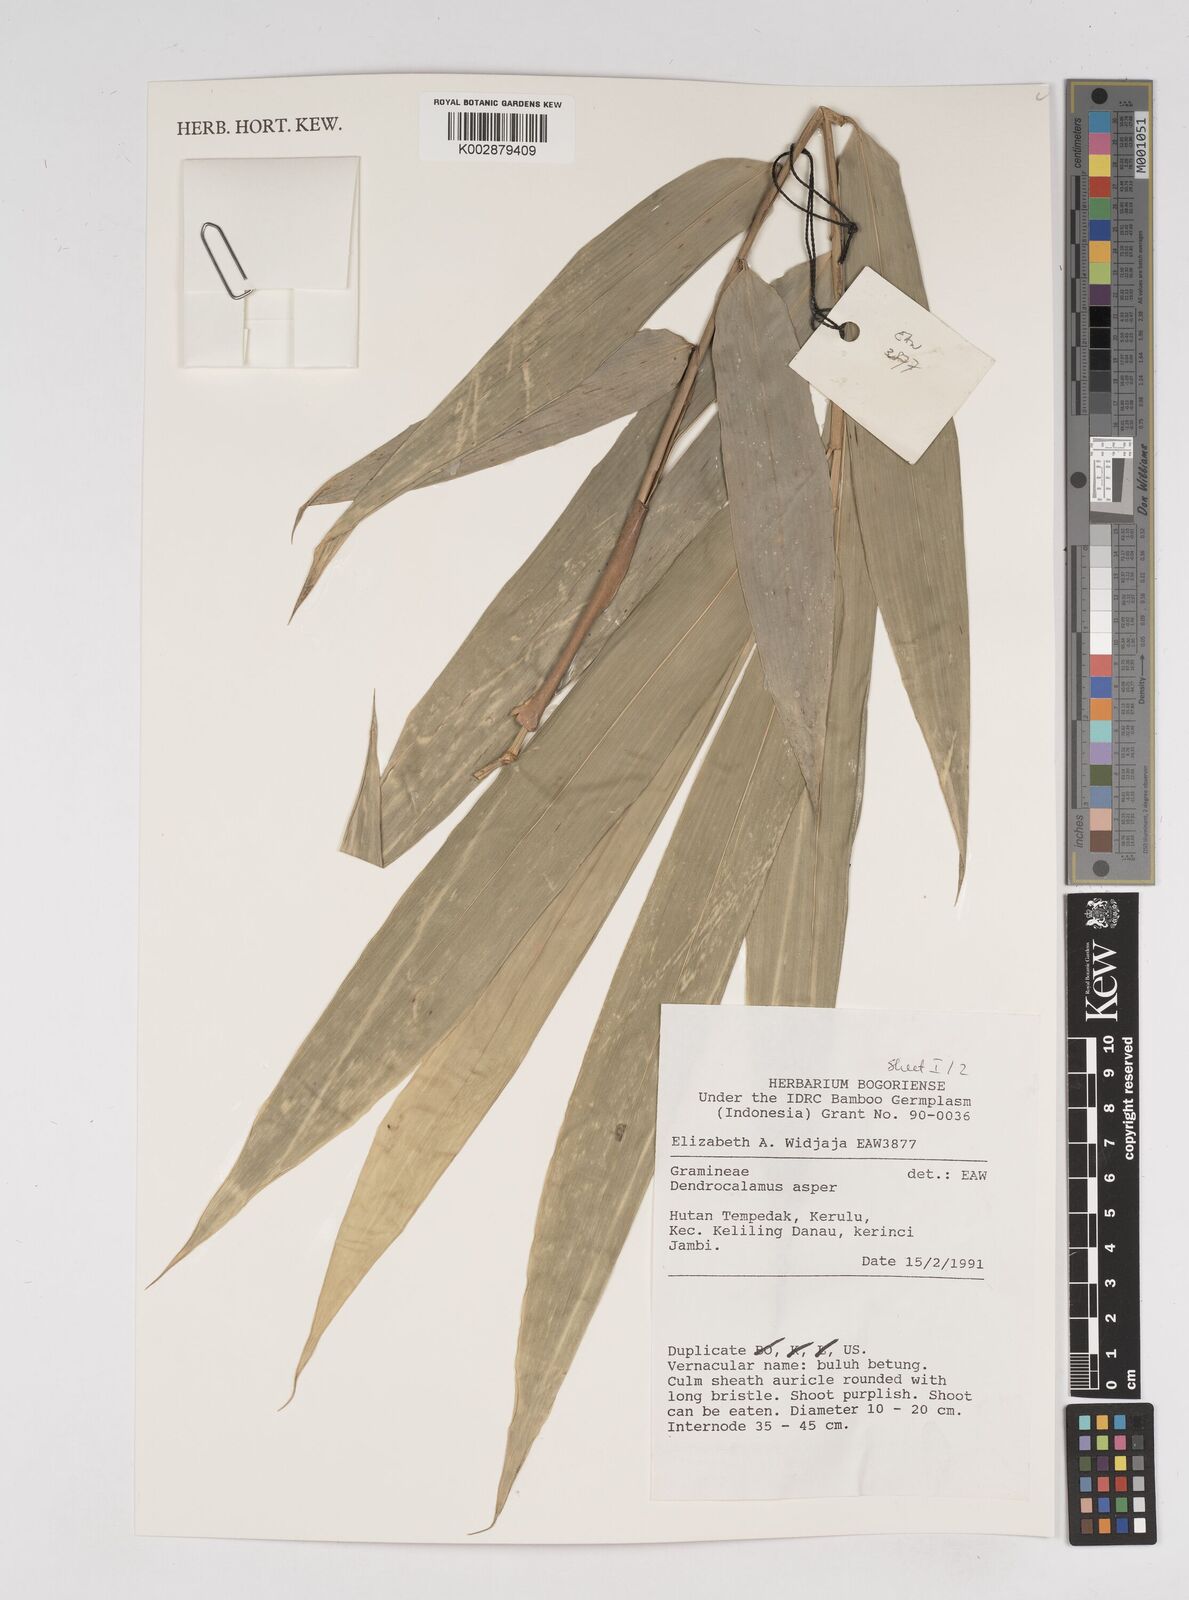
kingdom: Plantae
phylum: Tracheophyta
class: Liliopsida
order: Poales
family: Poaceae
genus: Dendrocalamus
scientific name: Dendrocalamus asper
